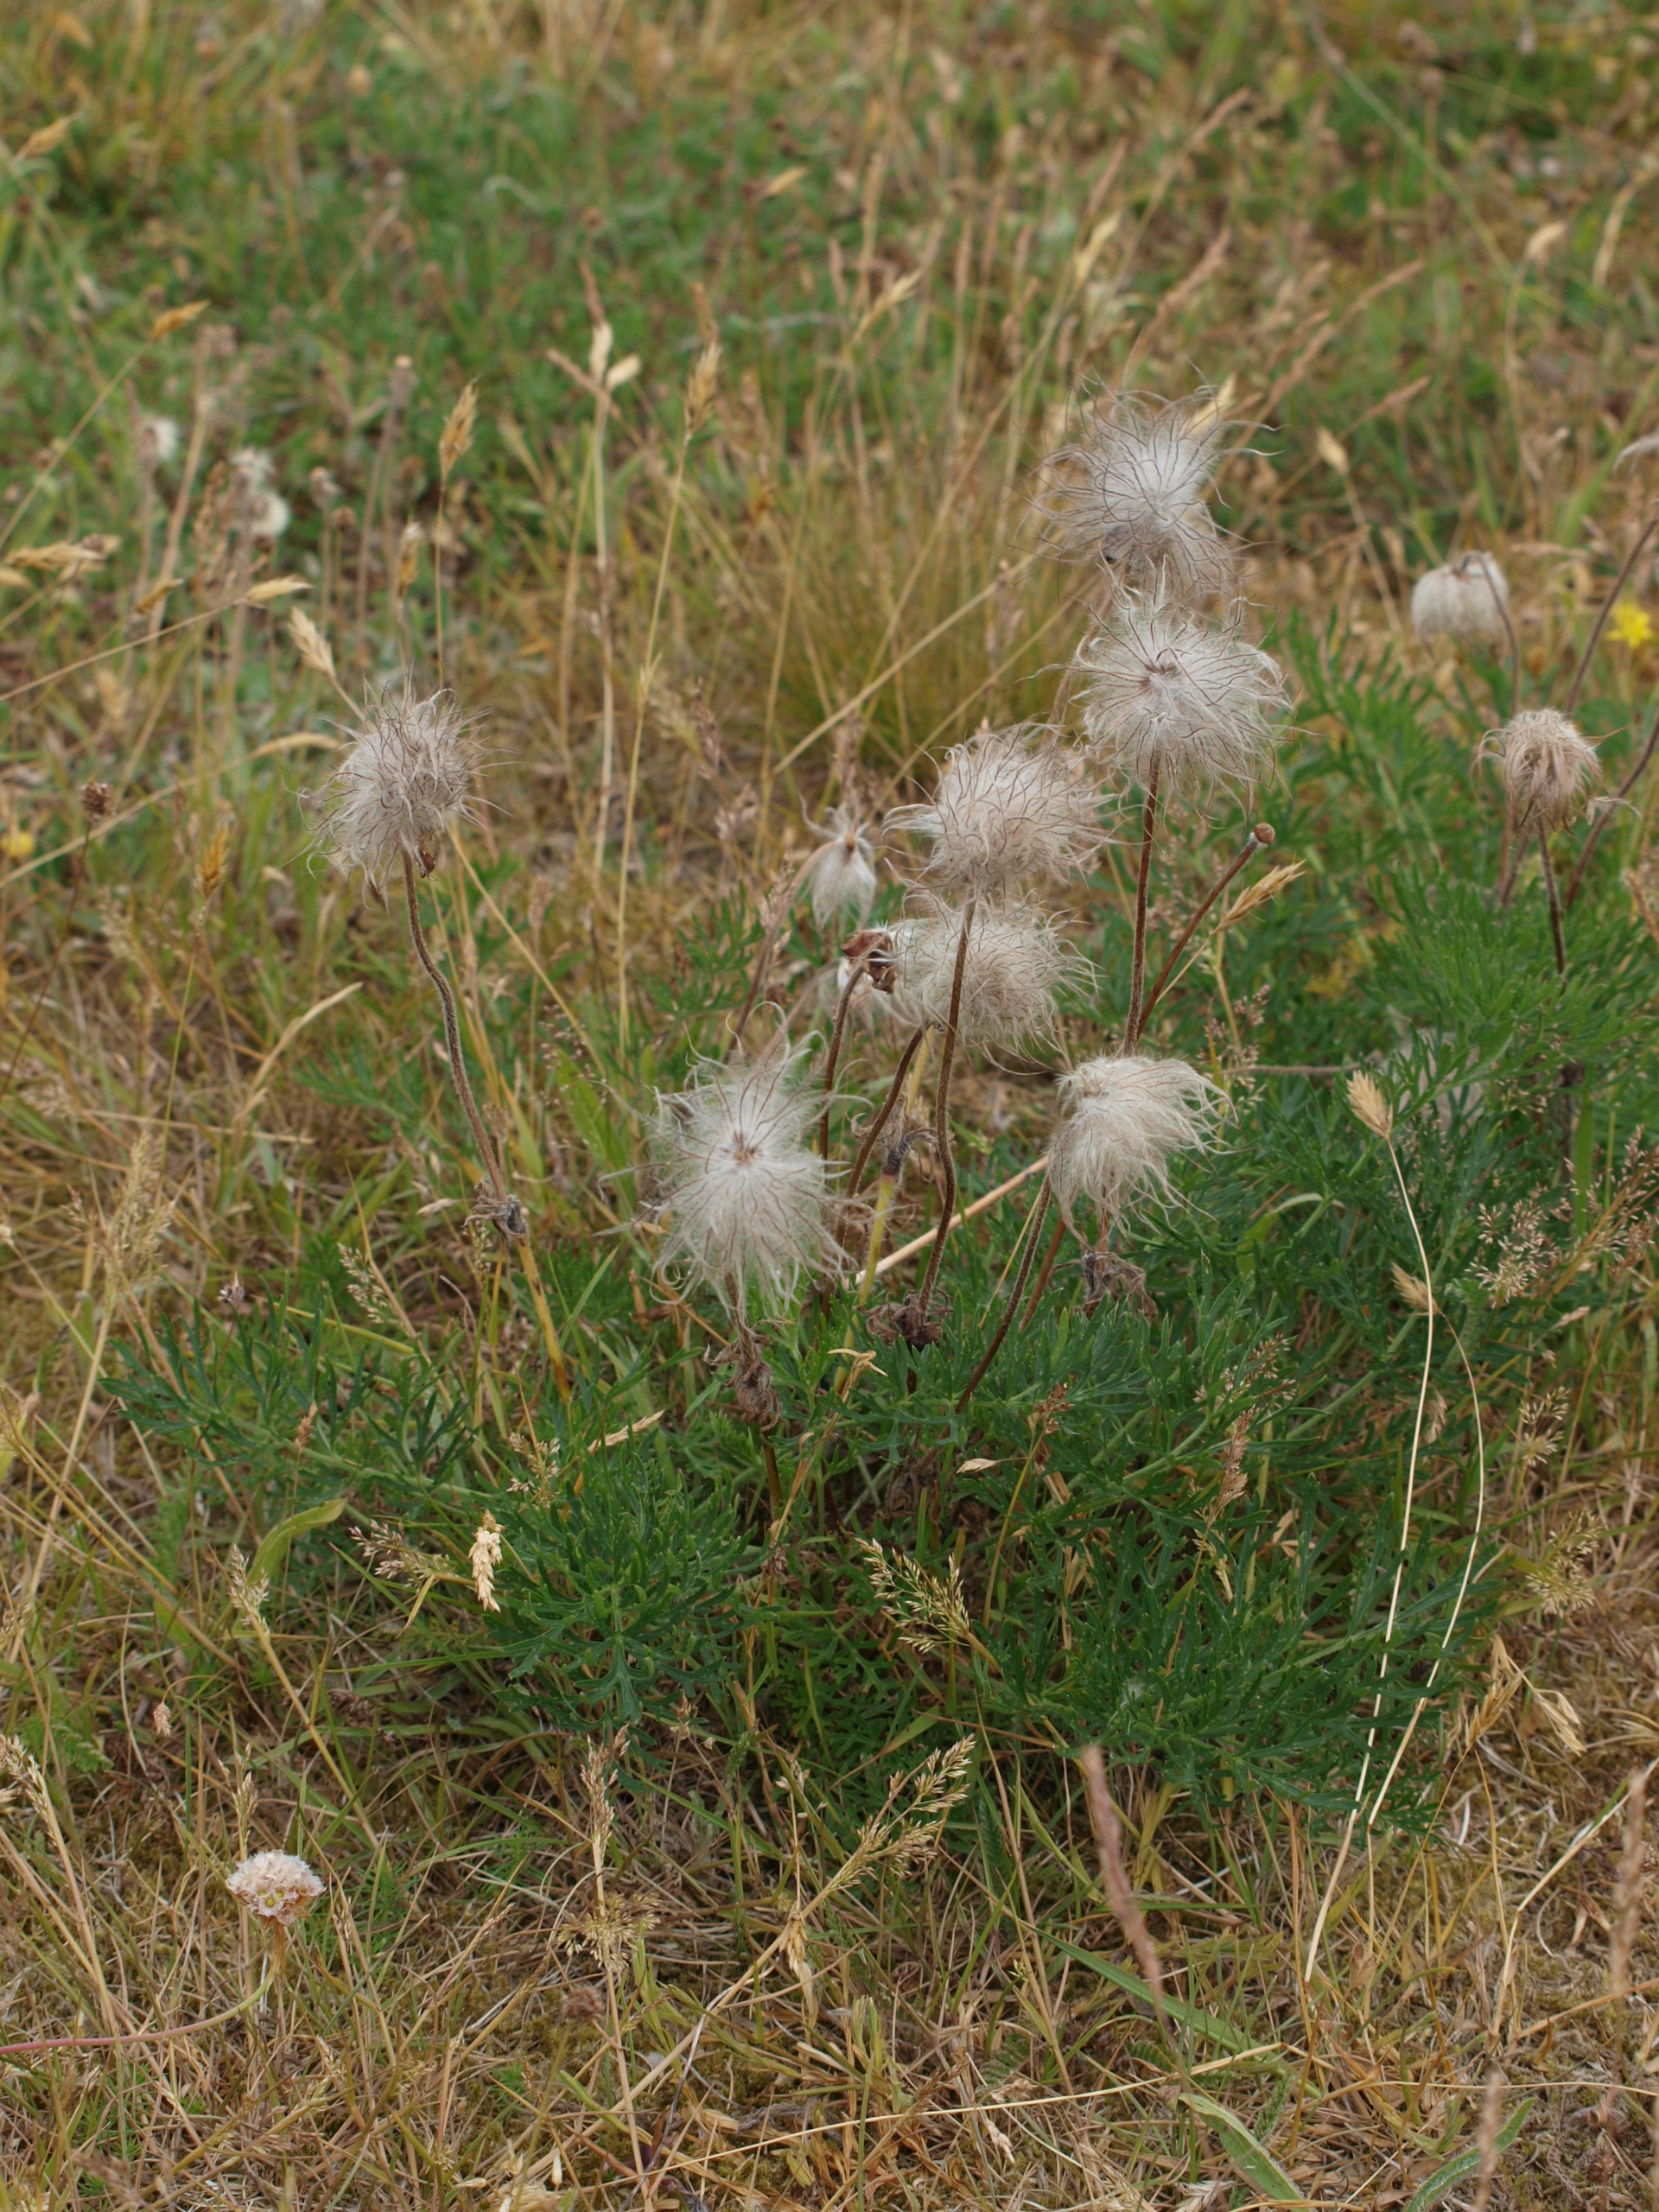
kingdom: Plantae
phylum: Tracheophyta
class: Magnoliopsida
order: Ranunculales
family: Ranunculaceae
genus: Pulsatilla
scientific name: Pulsatilla pratensis
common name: Nikkende kobjælde
